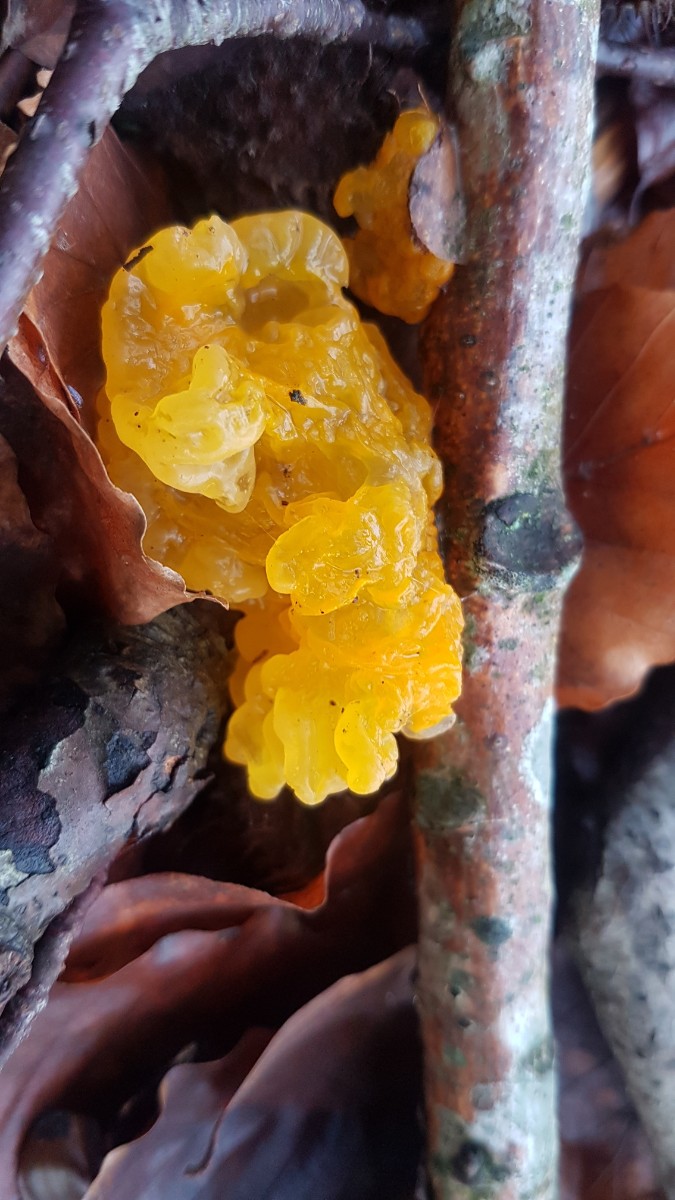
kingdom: Fungi
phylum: Basidiomycota
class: Tremellomycetes
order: Tremellales
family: Tremellaceae
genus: Tremella
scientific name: Tremella mesenterica
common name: gul bævresvamp
